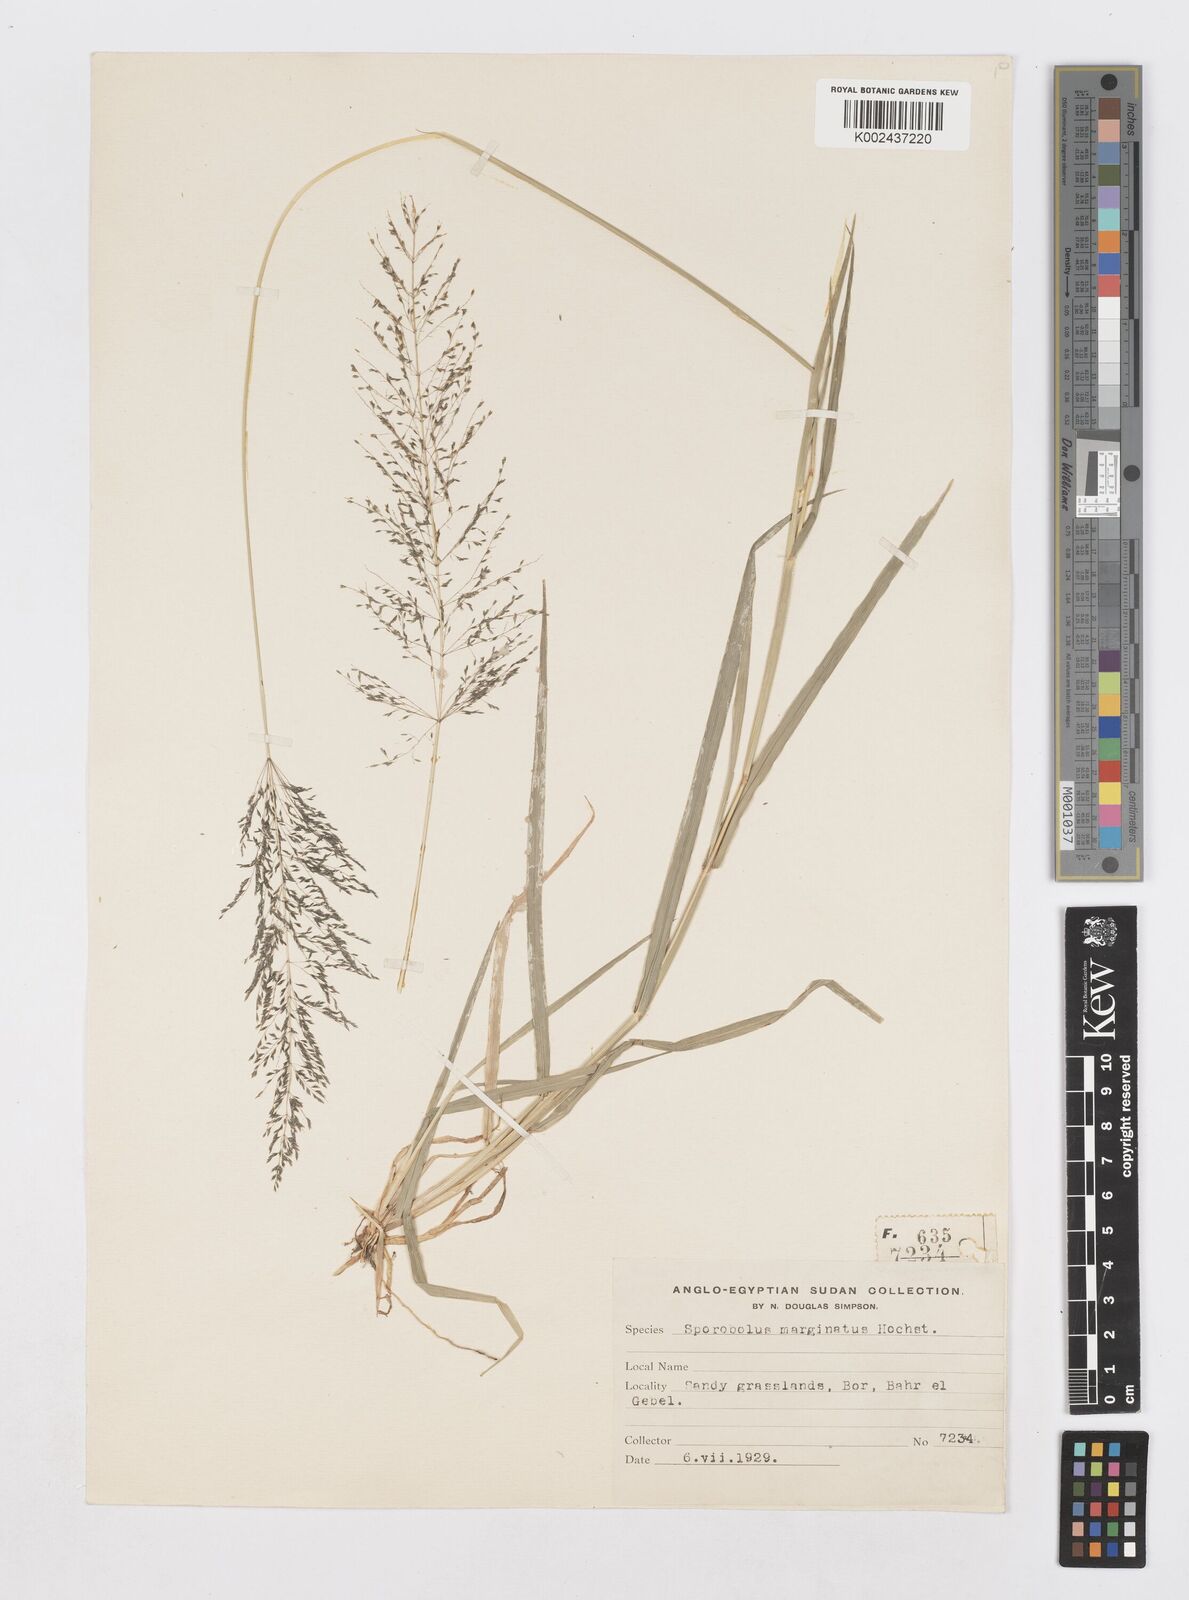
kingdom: Plantae
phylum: Tracheophyta
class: Liliopsida
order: Poales
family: Poaceae
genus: Sporobolus
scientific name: Sporobolus ioclados
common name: Pan dropseed
